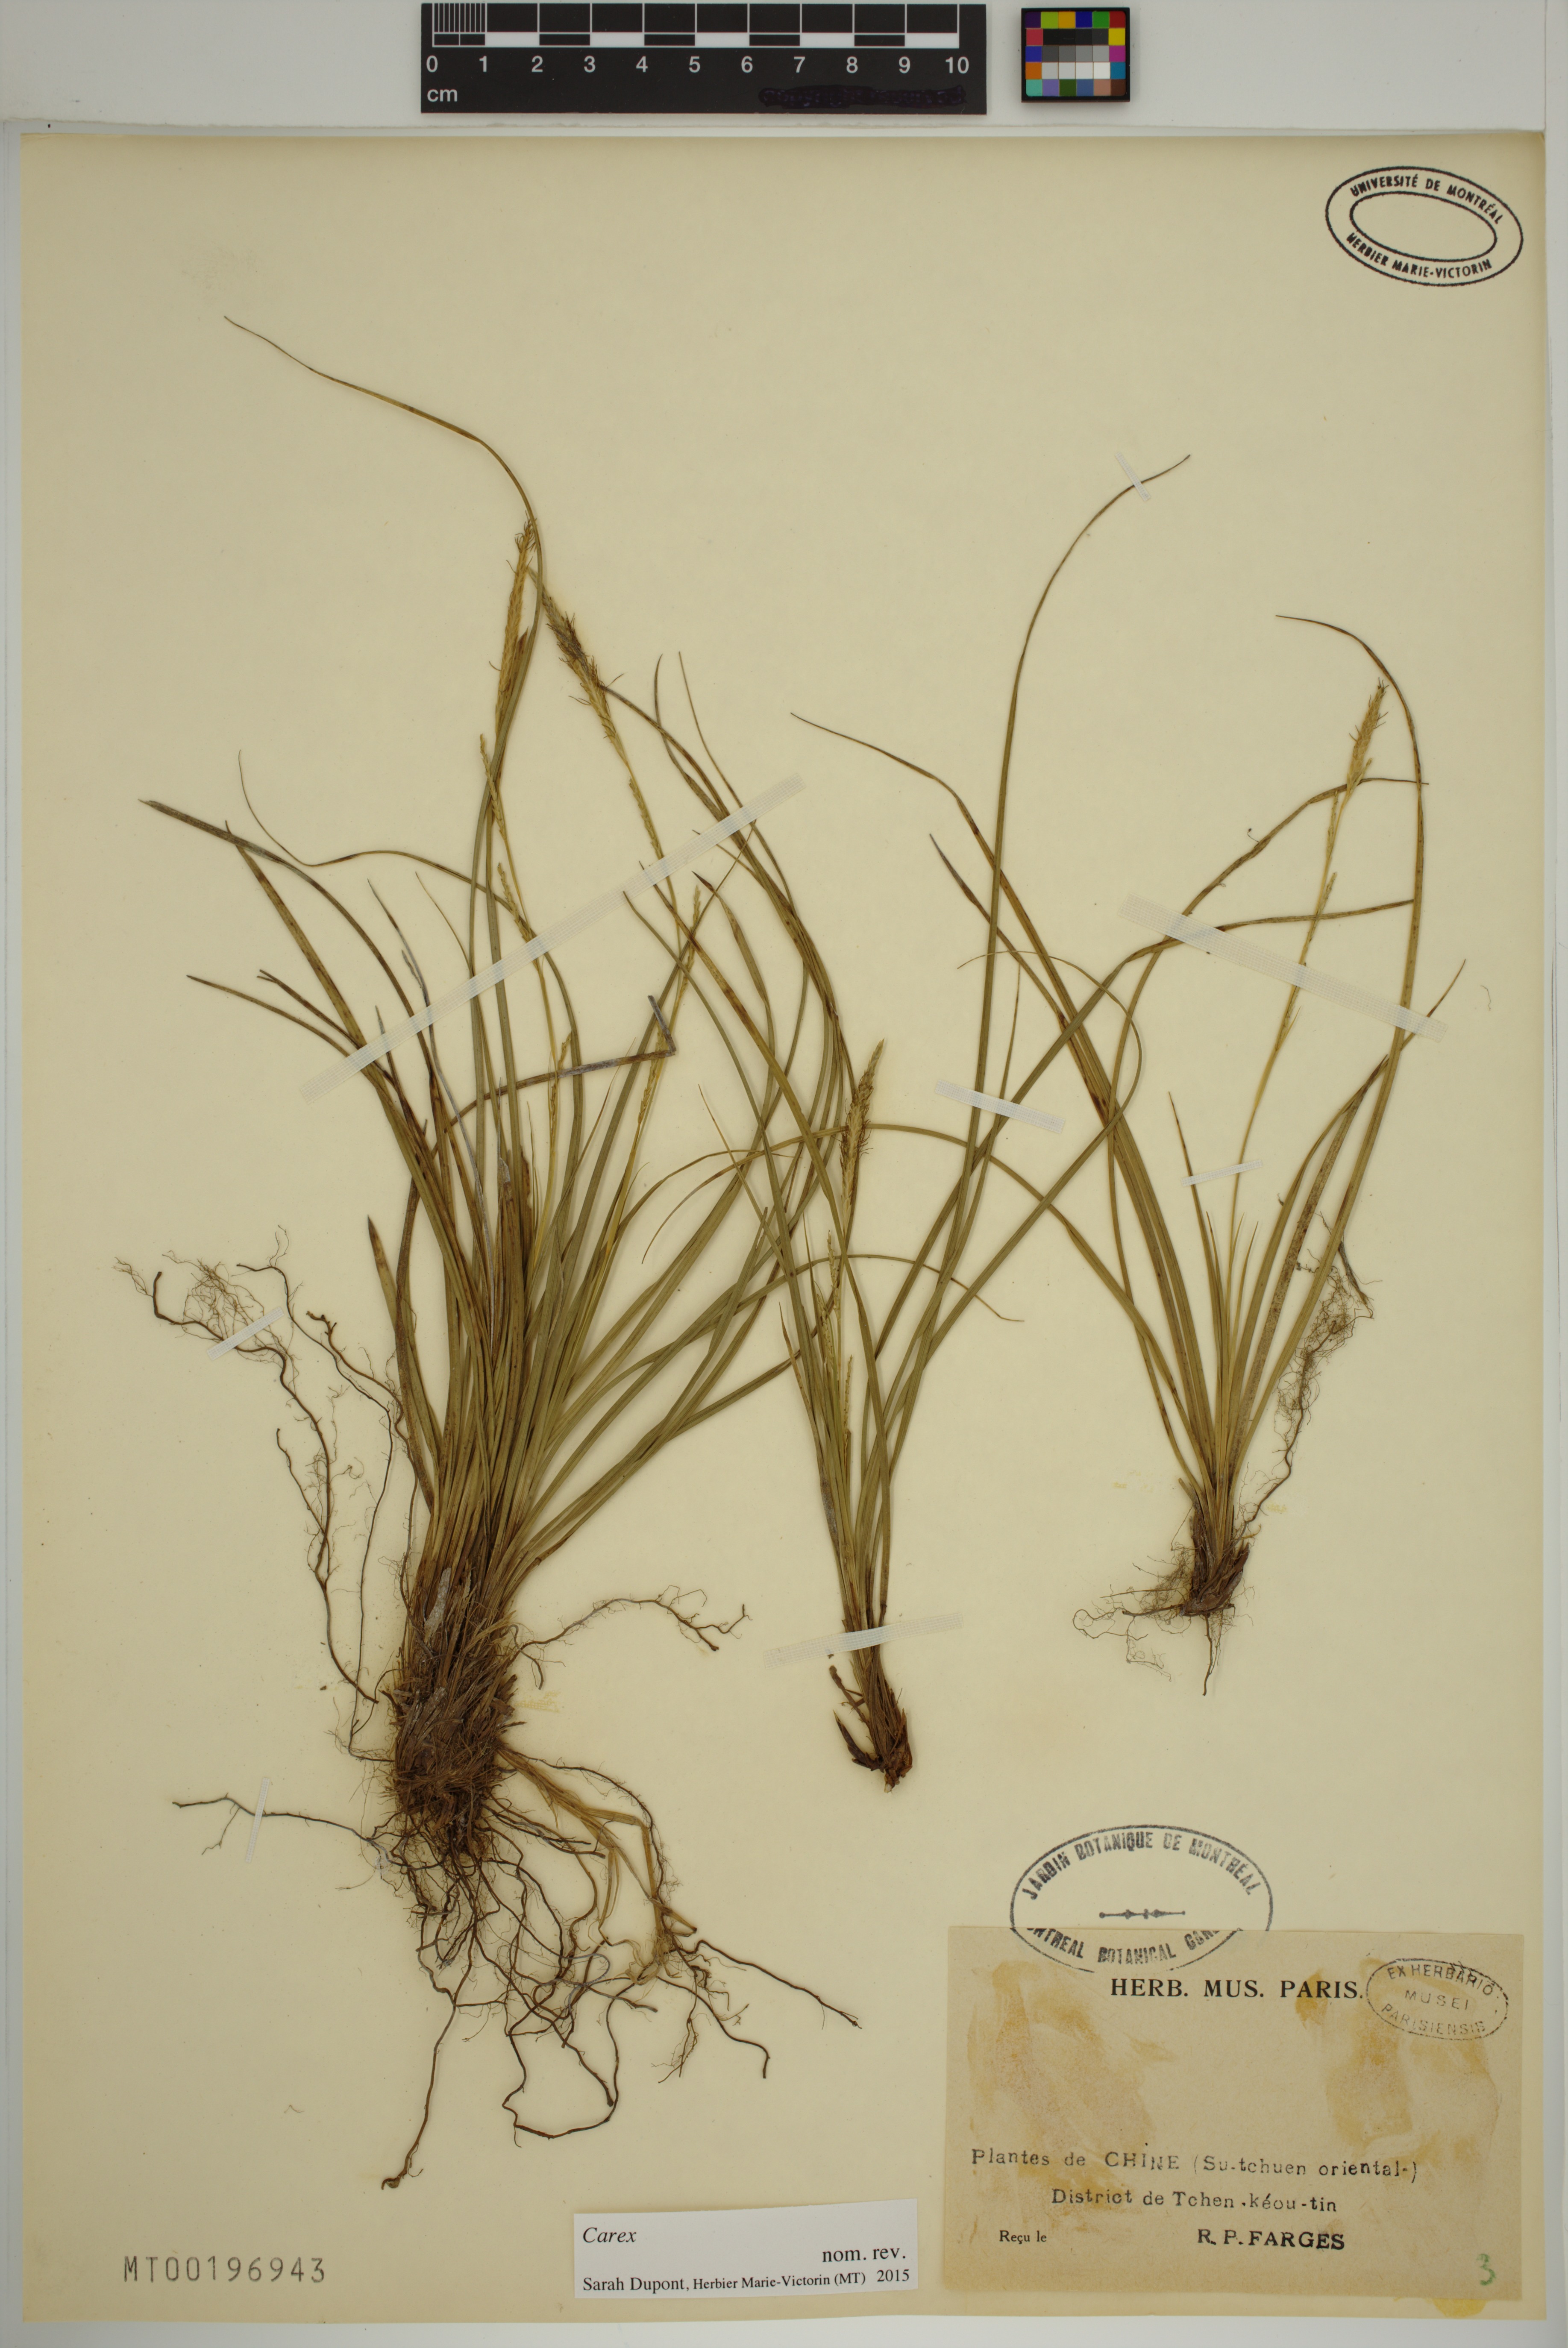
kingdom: Plantae
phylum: Tracheophyta
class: Liliopsida
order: Poales
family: Cyperaceae
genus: Carex
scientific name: Carex
